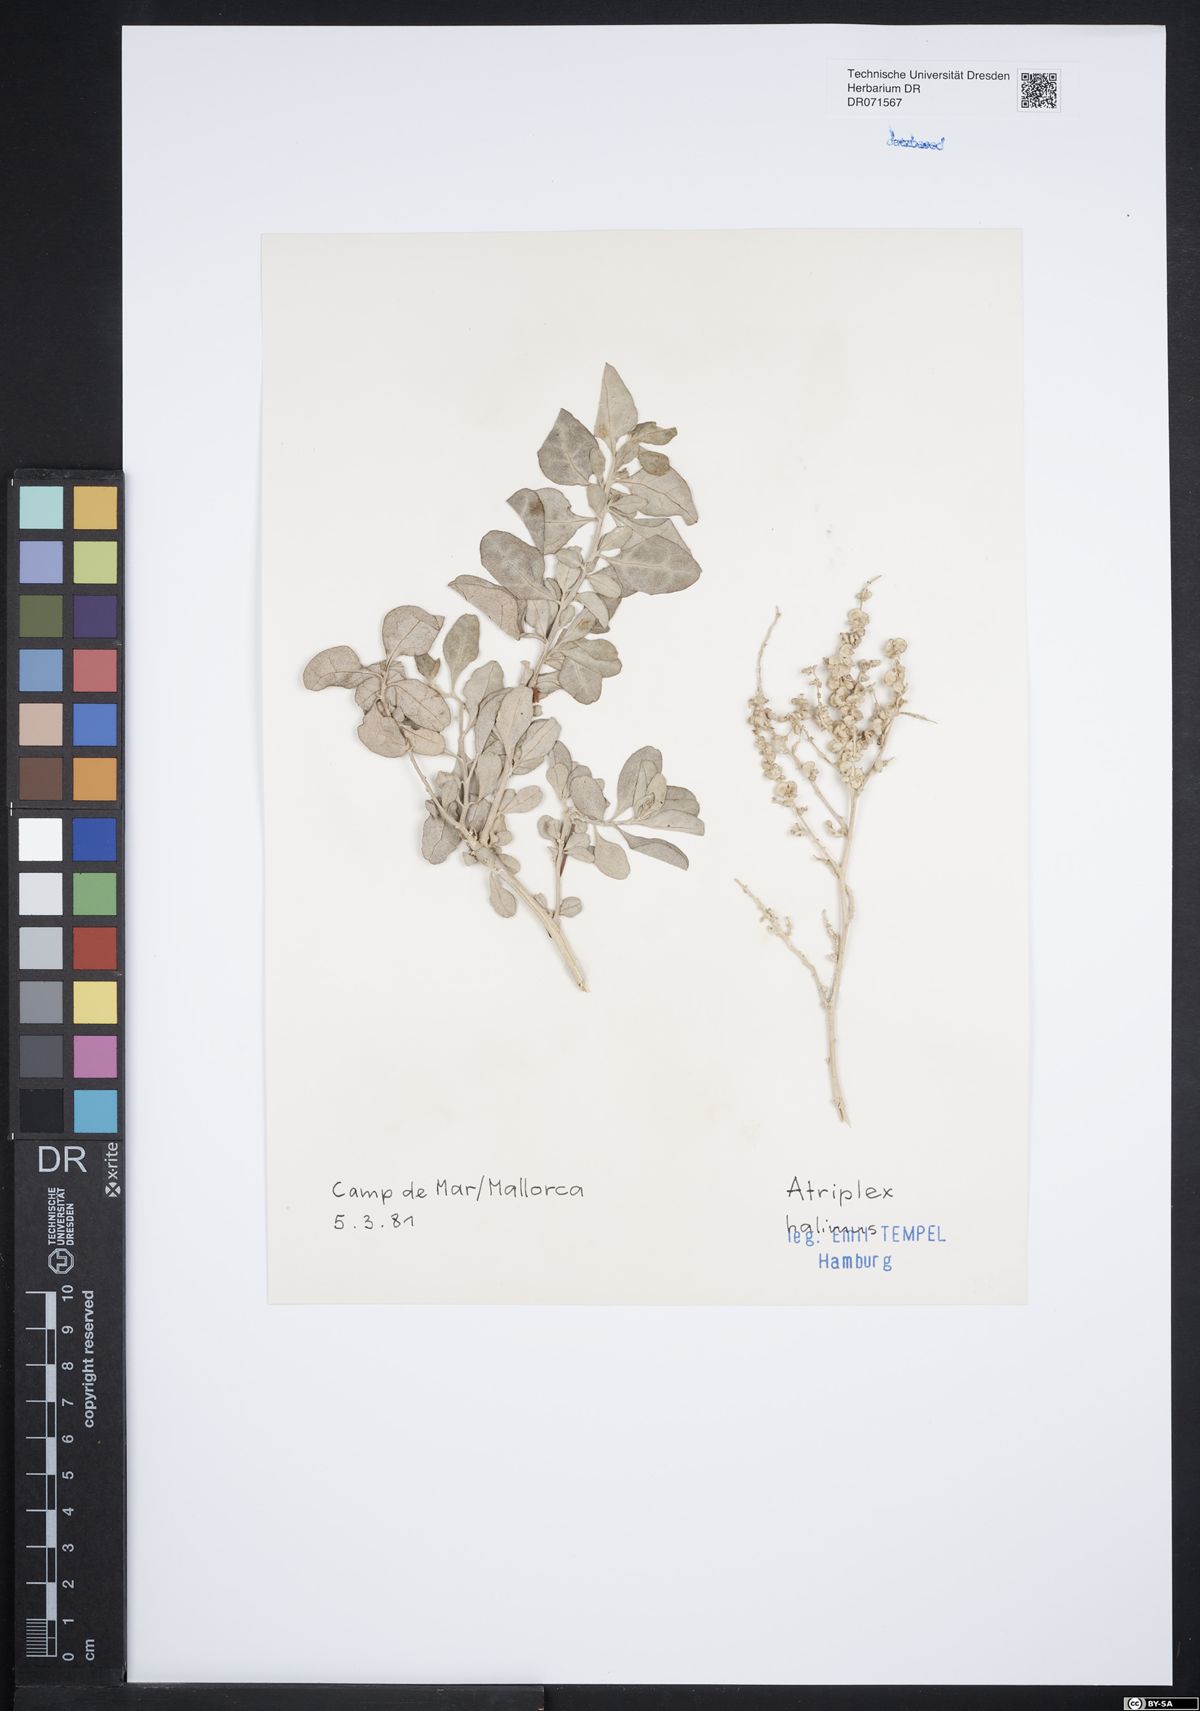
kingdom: Plantae
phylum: Tracheophyta
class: Magnoliopsida
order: Caryophyllales
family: Amaranthaceae
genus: Atriplex
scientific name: Atriplex halimus
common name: Shrubby orache
